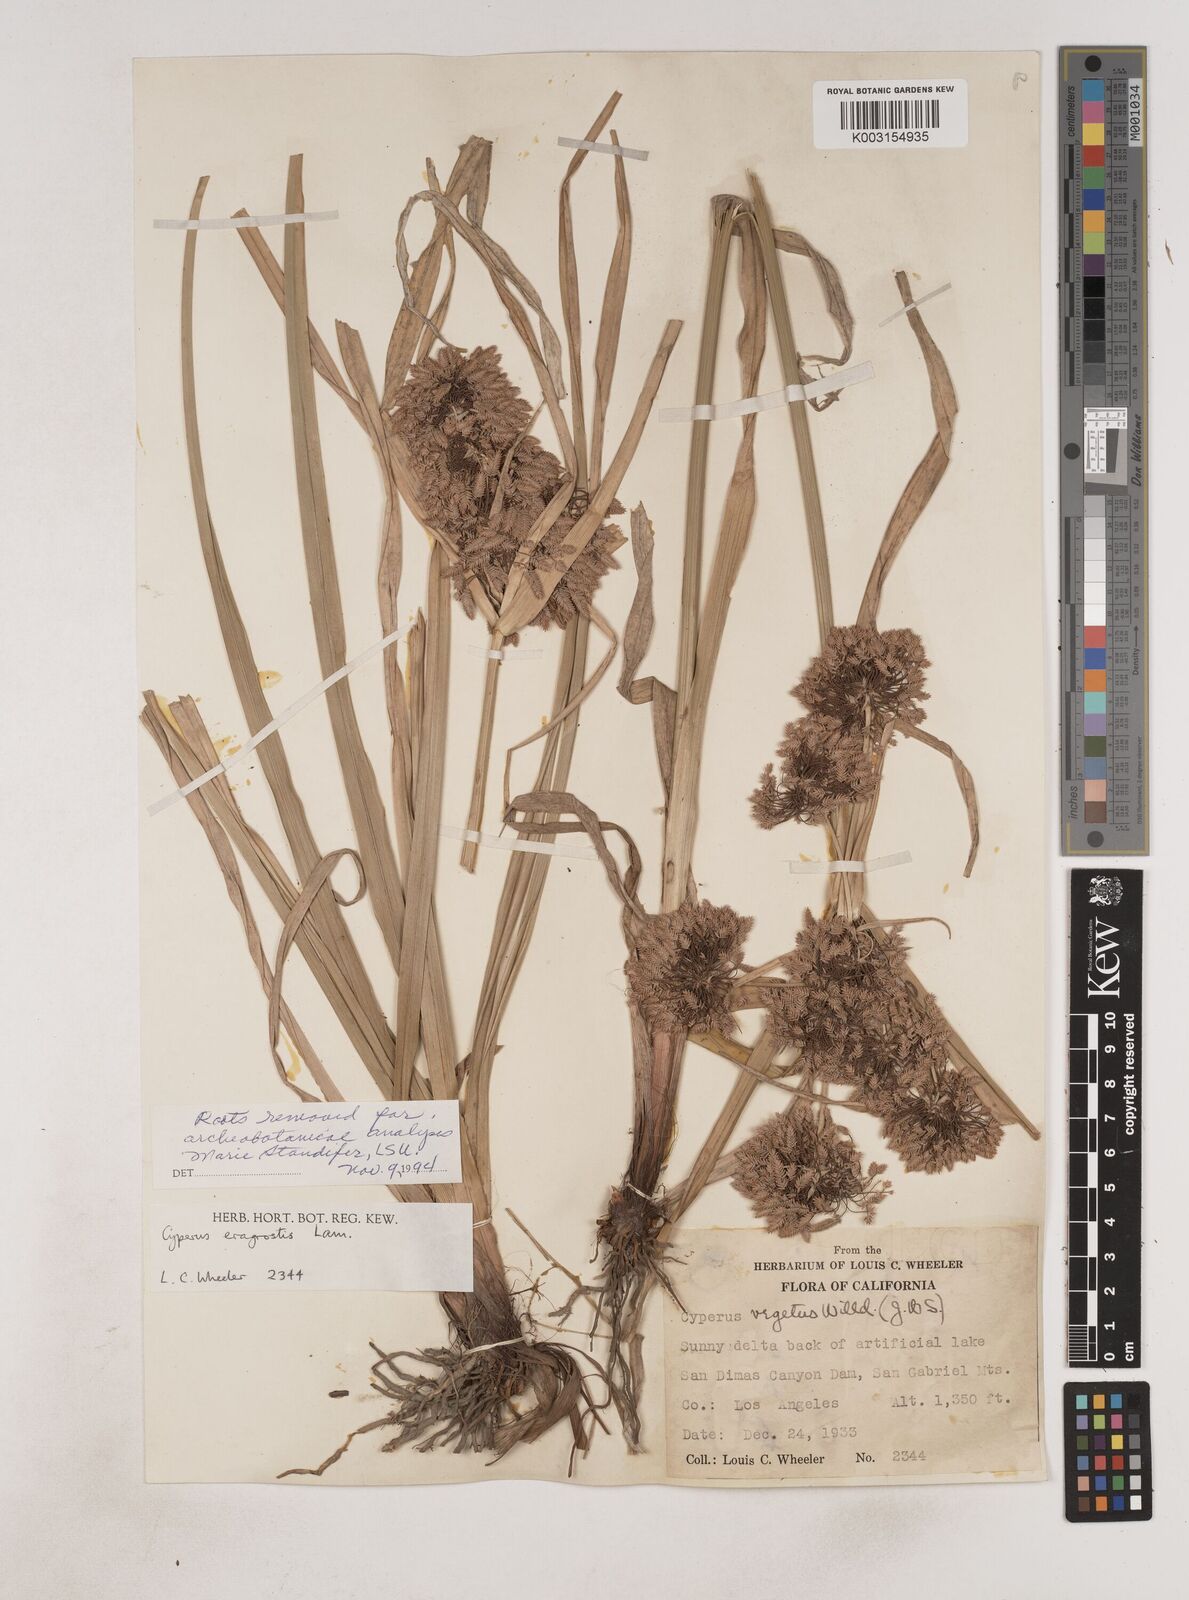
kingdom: Plantae
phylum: Tracheophyta
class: Liliopsida
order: Poales
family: Cyperaceae
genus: Cyperus
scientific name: Cyperus eragrostis
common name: Tall flatsedge
